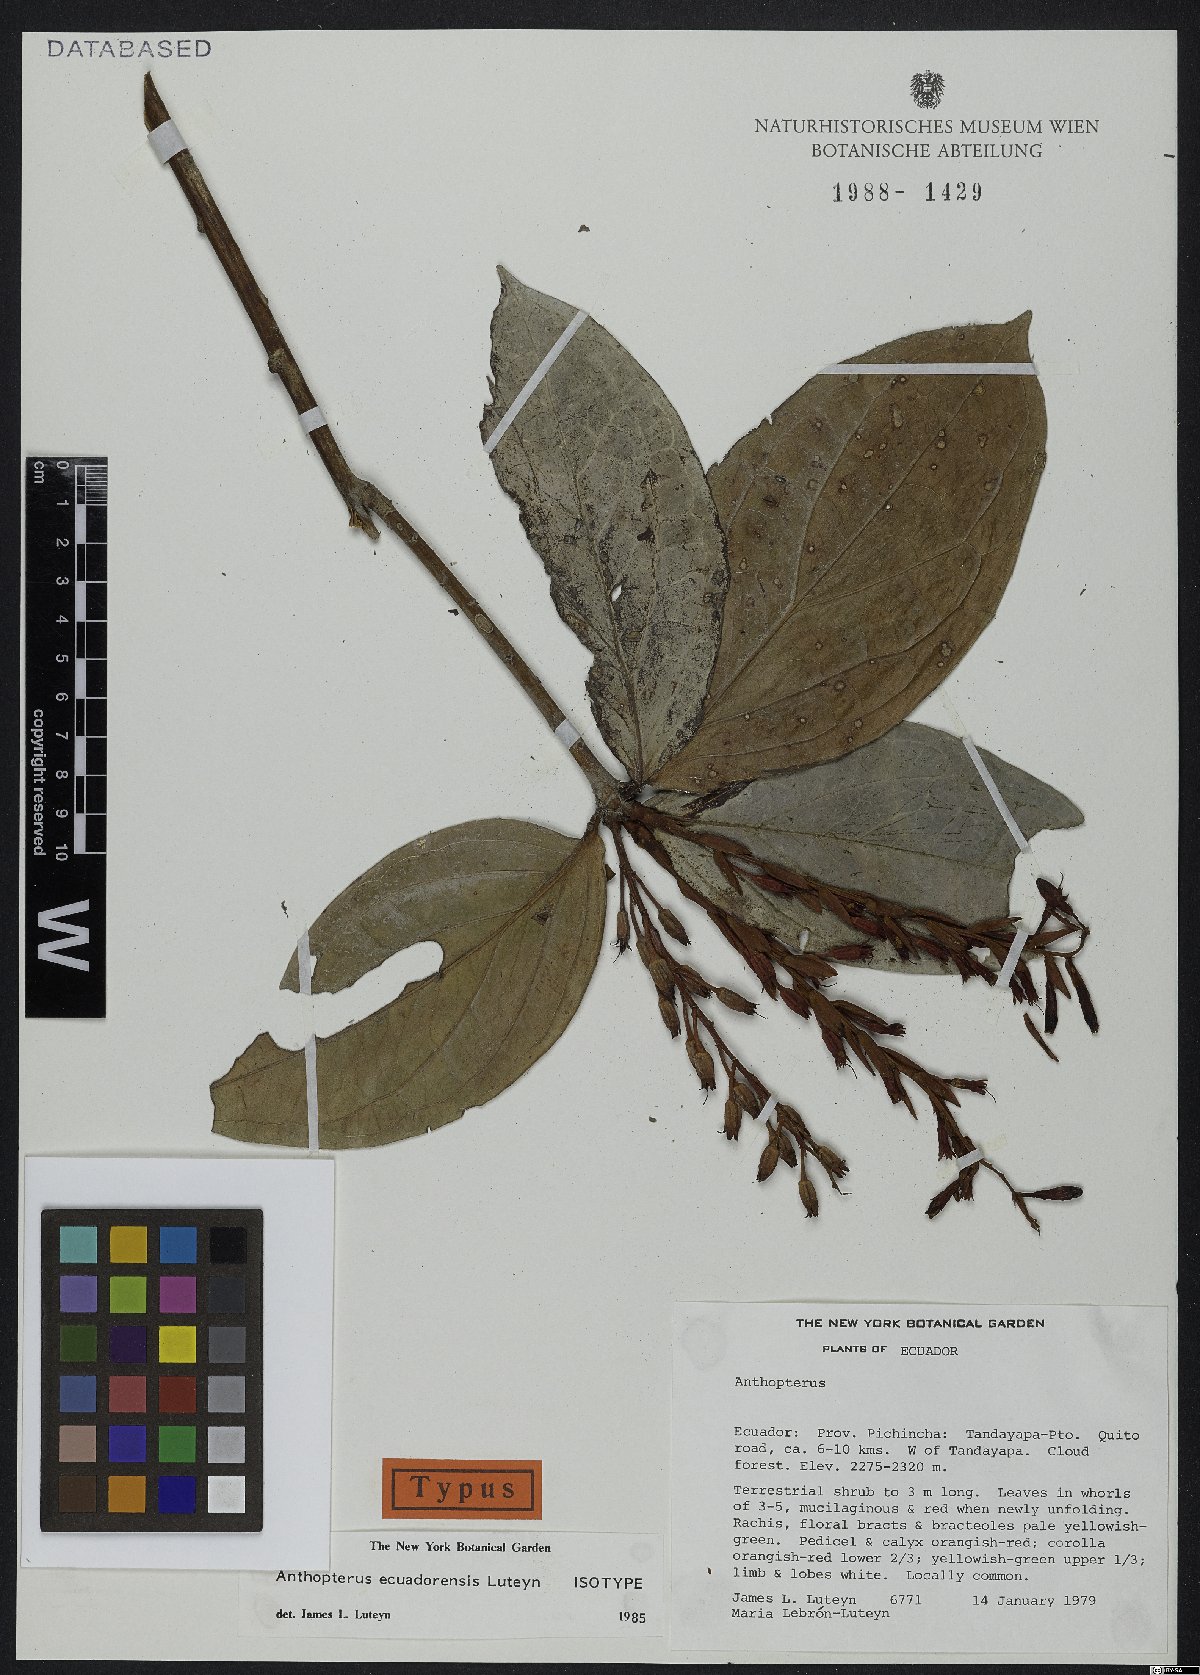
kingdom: Plantae
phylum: Tracheophyta
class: Magnoliopsida
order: Ericales
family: Ericaceae
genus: Anthopterus
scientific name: Anthopterus ecuadorensis
